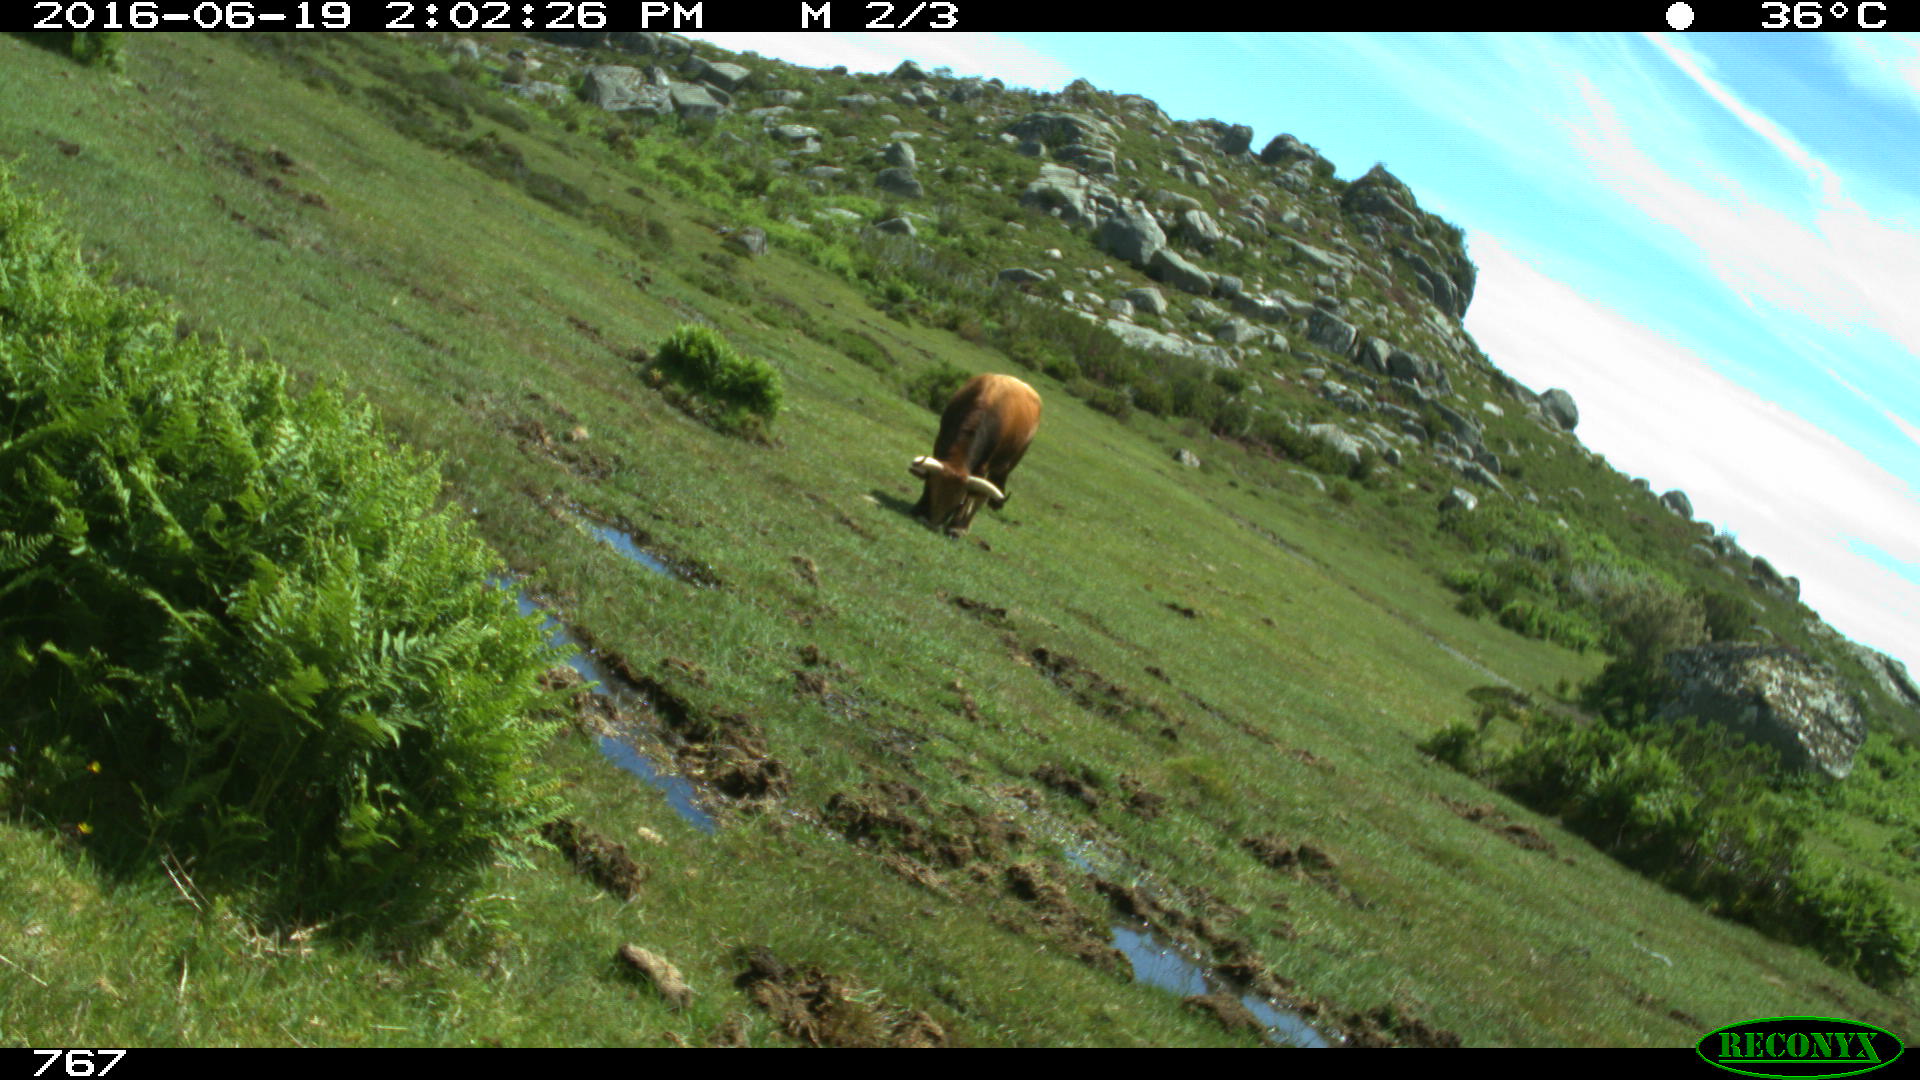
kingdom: Animalia
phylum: Chordata
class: Mammalia
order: Artiodactyla
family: Bovidae
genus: Bos
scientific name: Bos taurus
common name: Domesticated cattle
